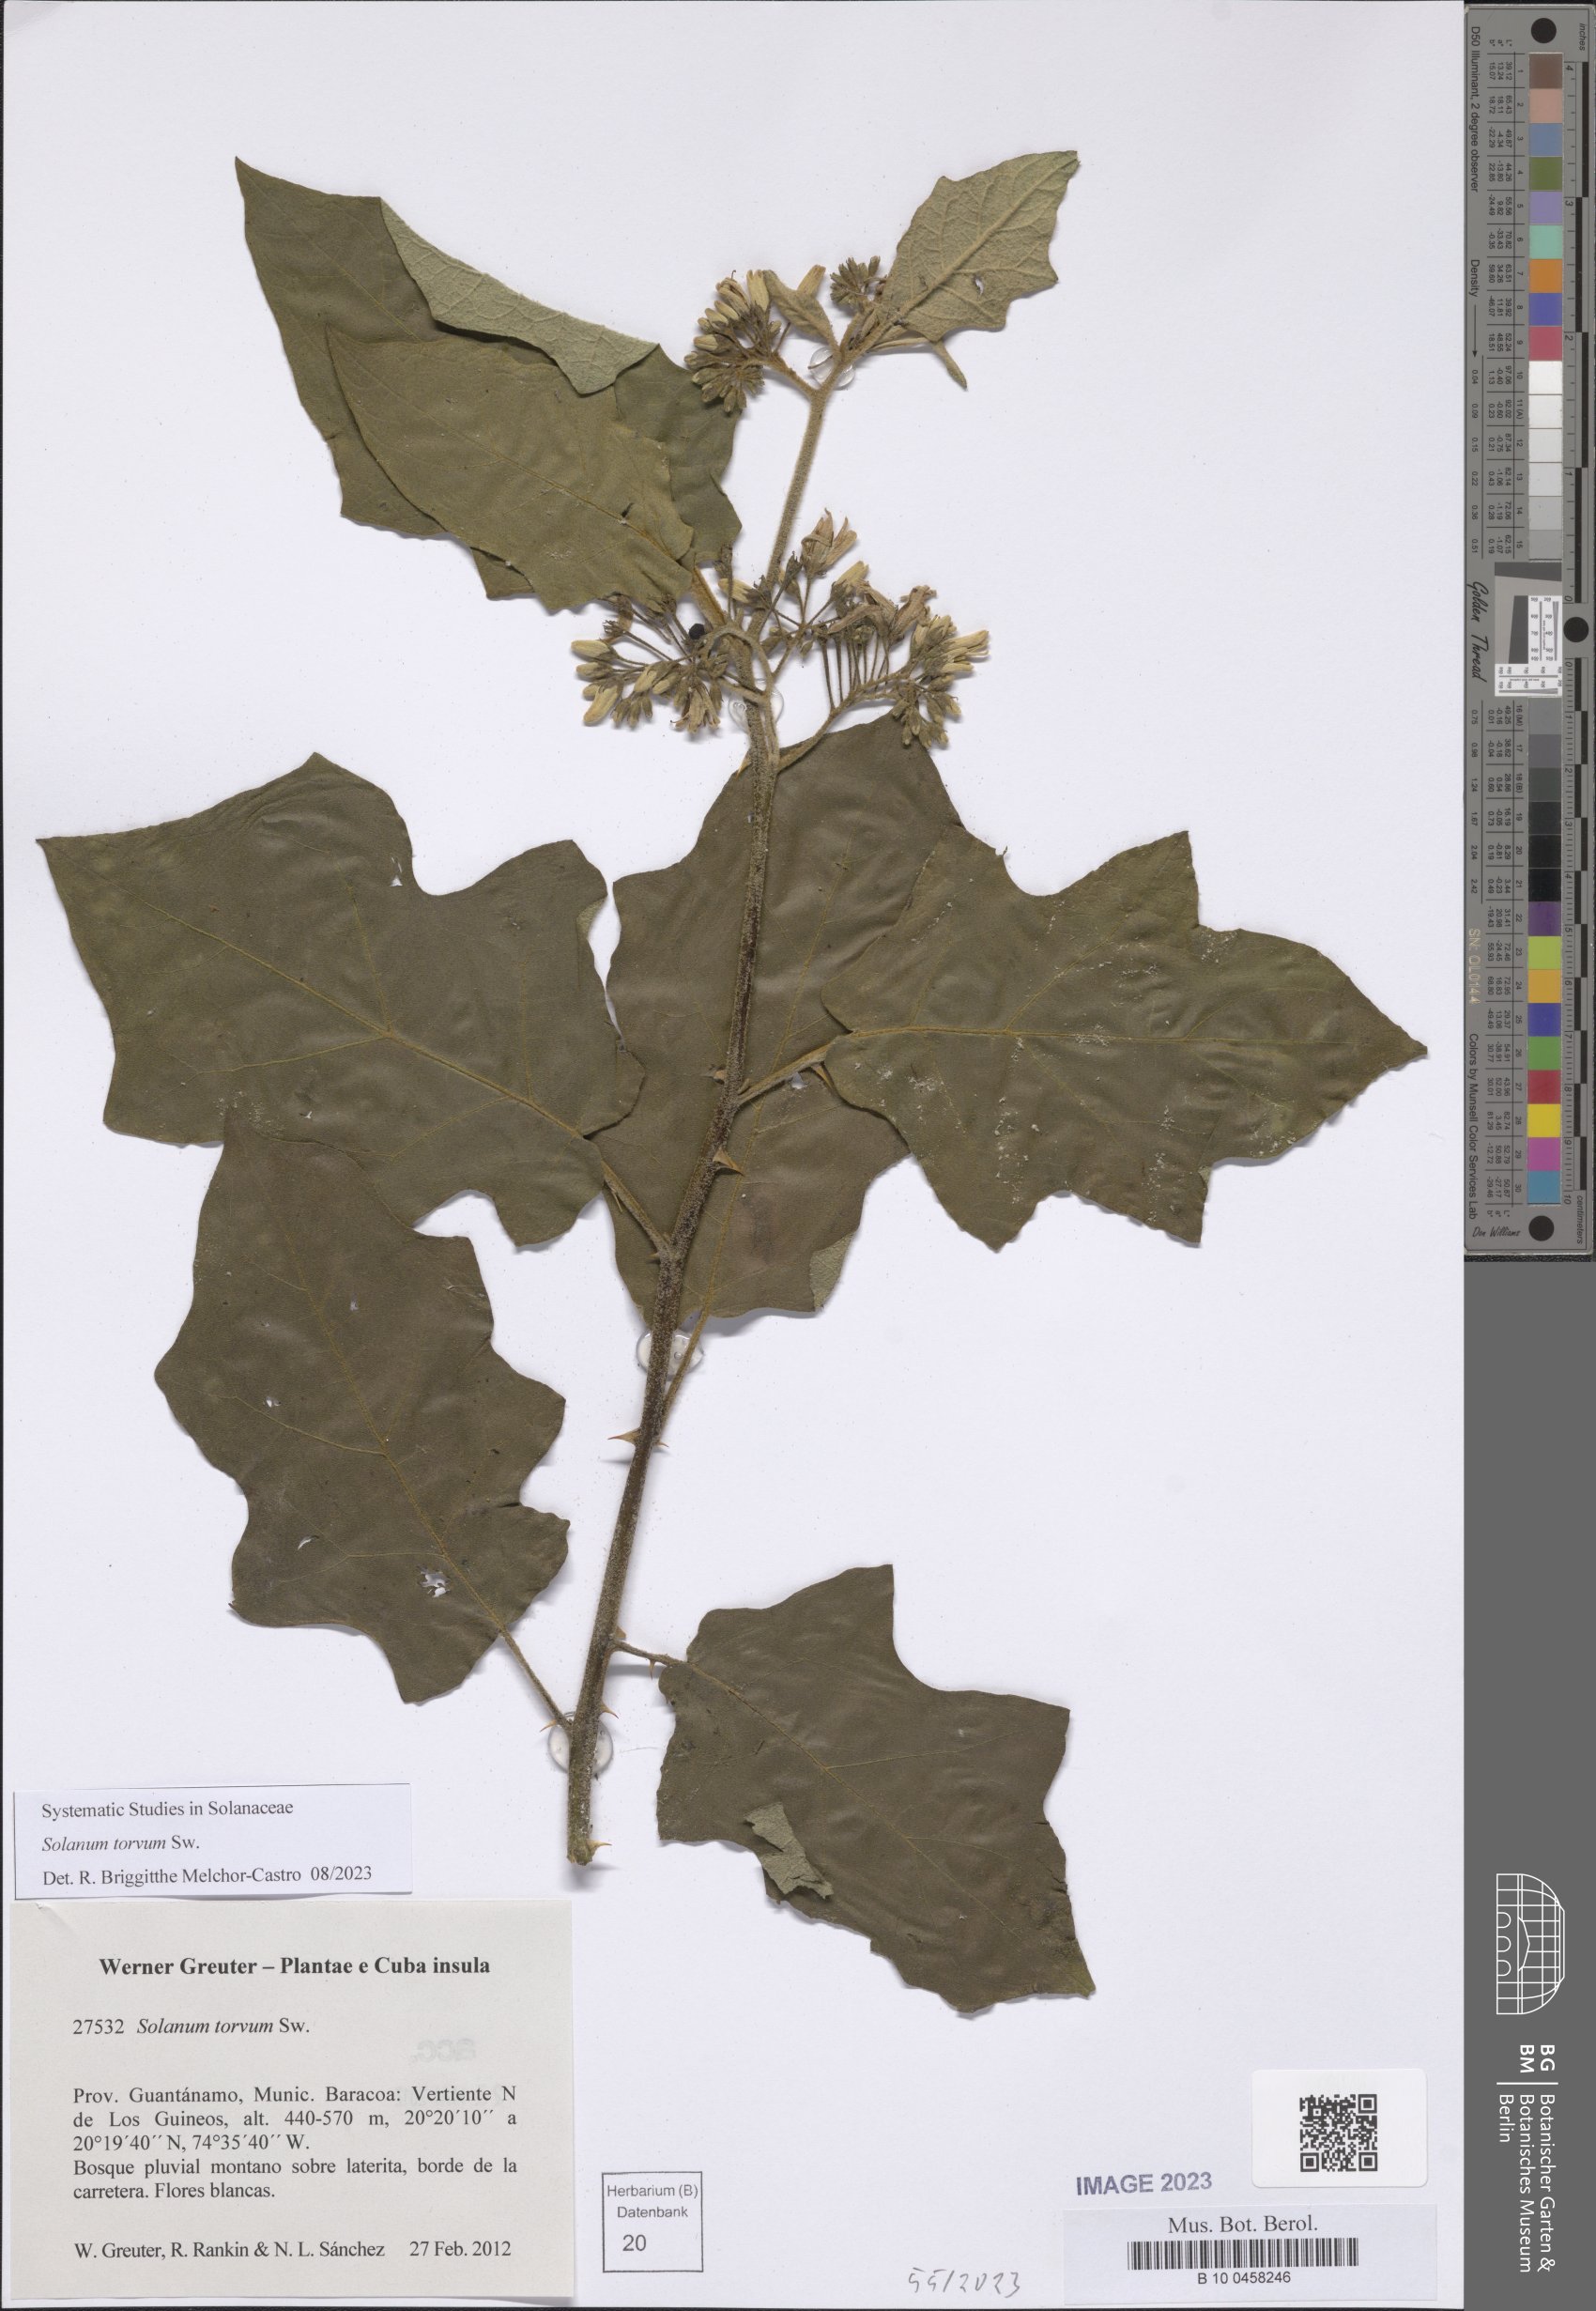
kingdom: Plantae
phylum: Tracheophyta
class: Magnoliopsida
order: Solanales
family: Solanaceae
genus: Solanum
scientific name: Solanum torvum
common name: Turkey berry
